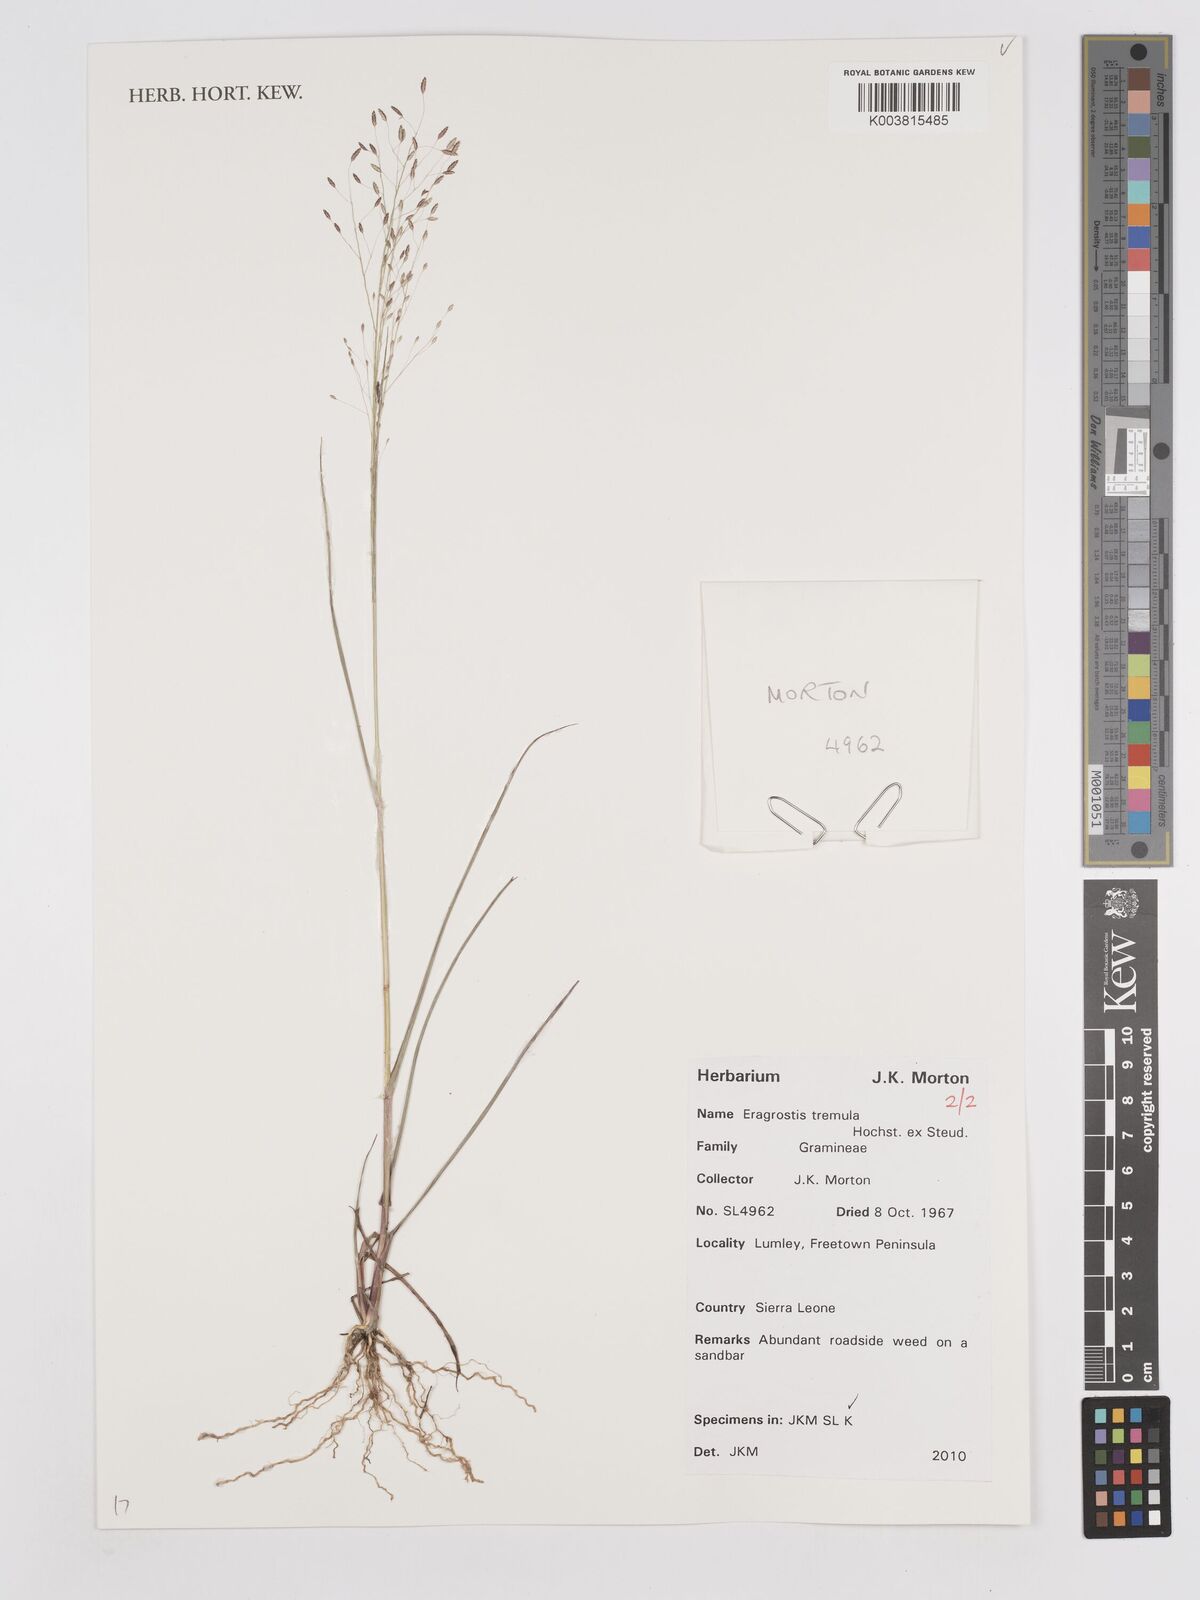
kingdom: Plantae
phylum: Tracheophyta
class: Liliopsida
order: Poales
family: Poaceae
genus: Eragrostis
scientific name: Eragrostis tremula
